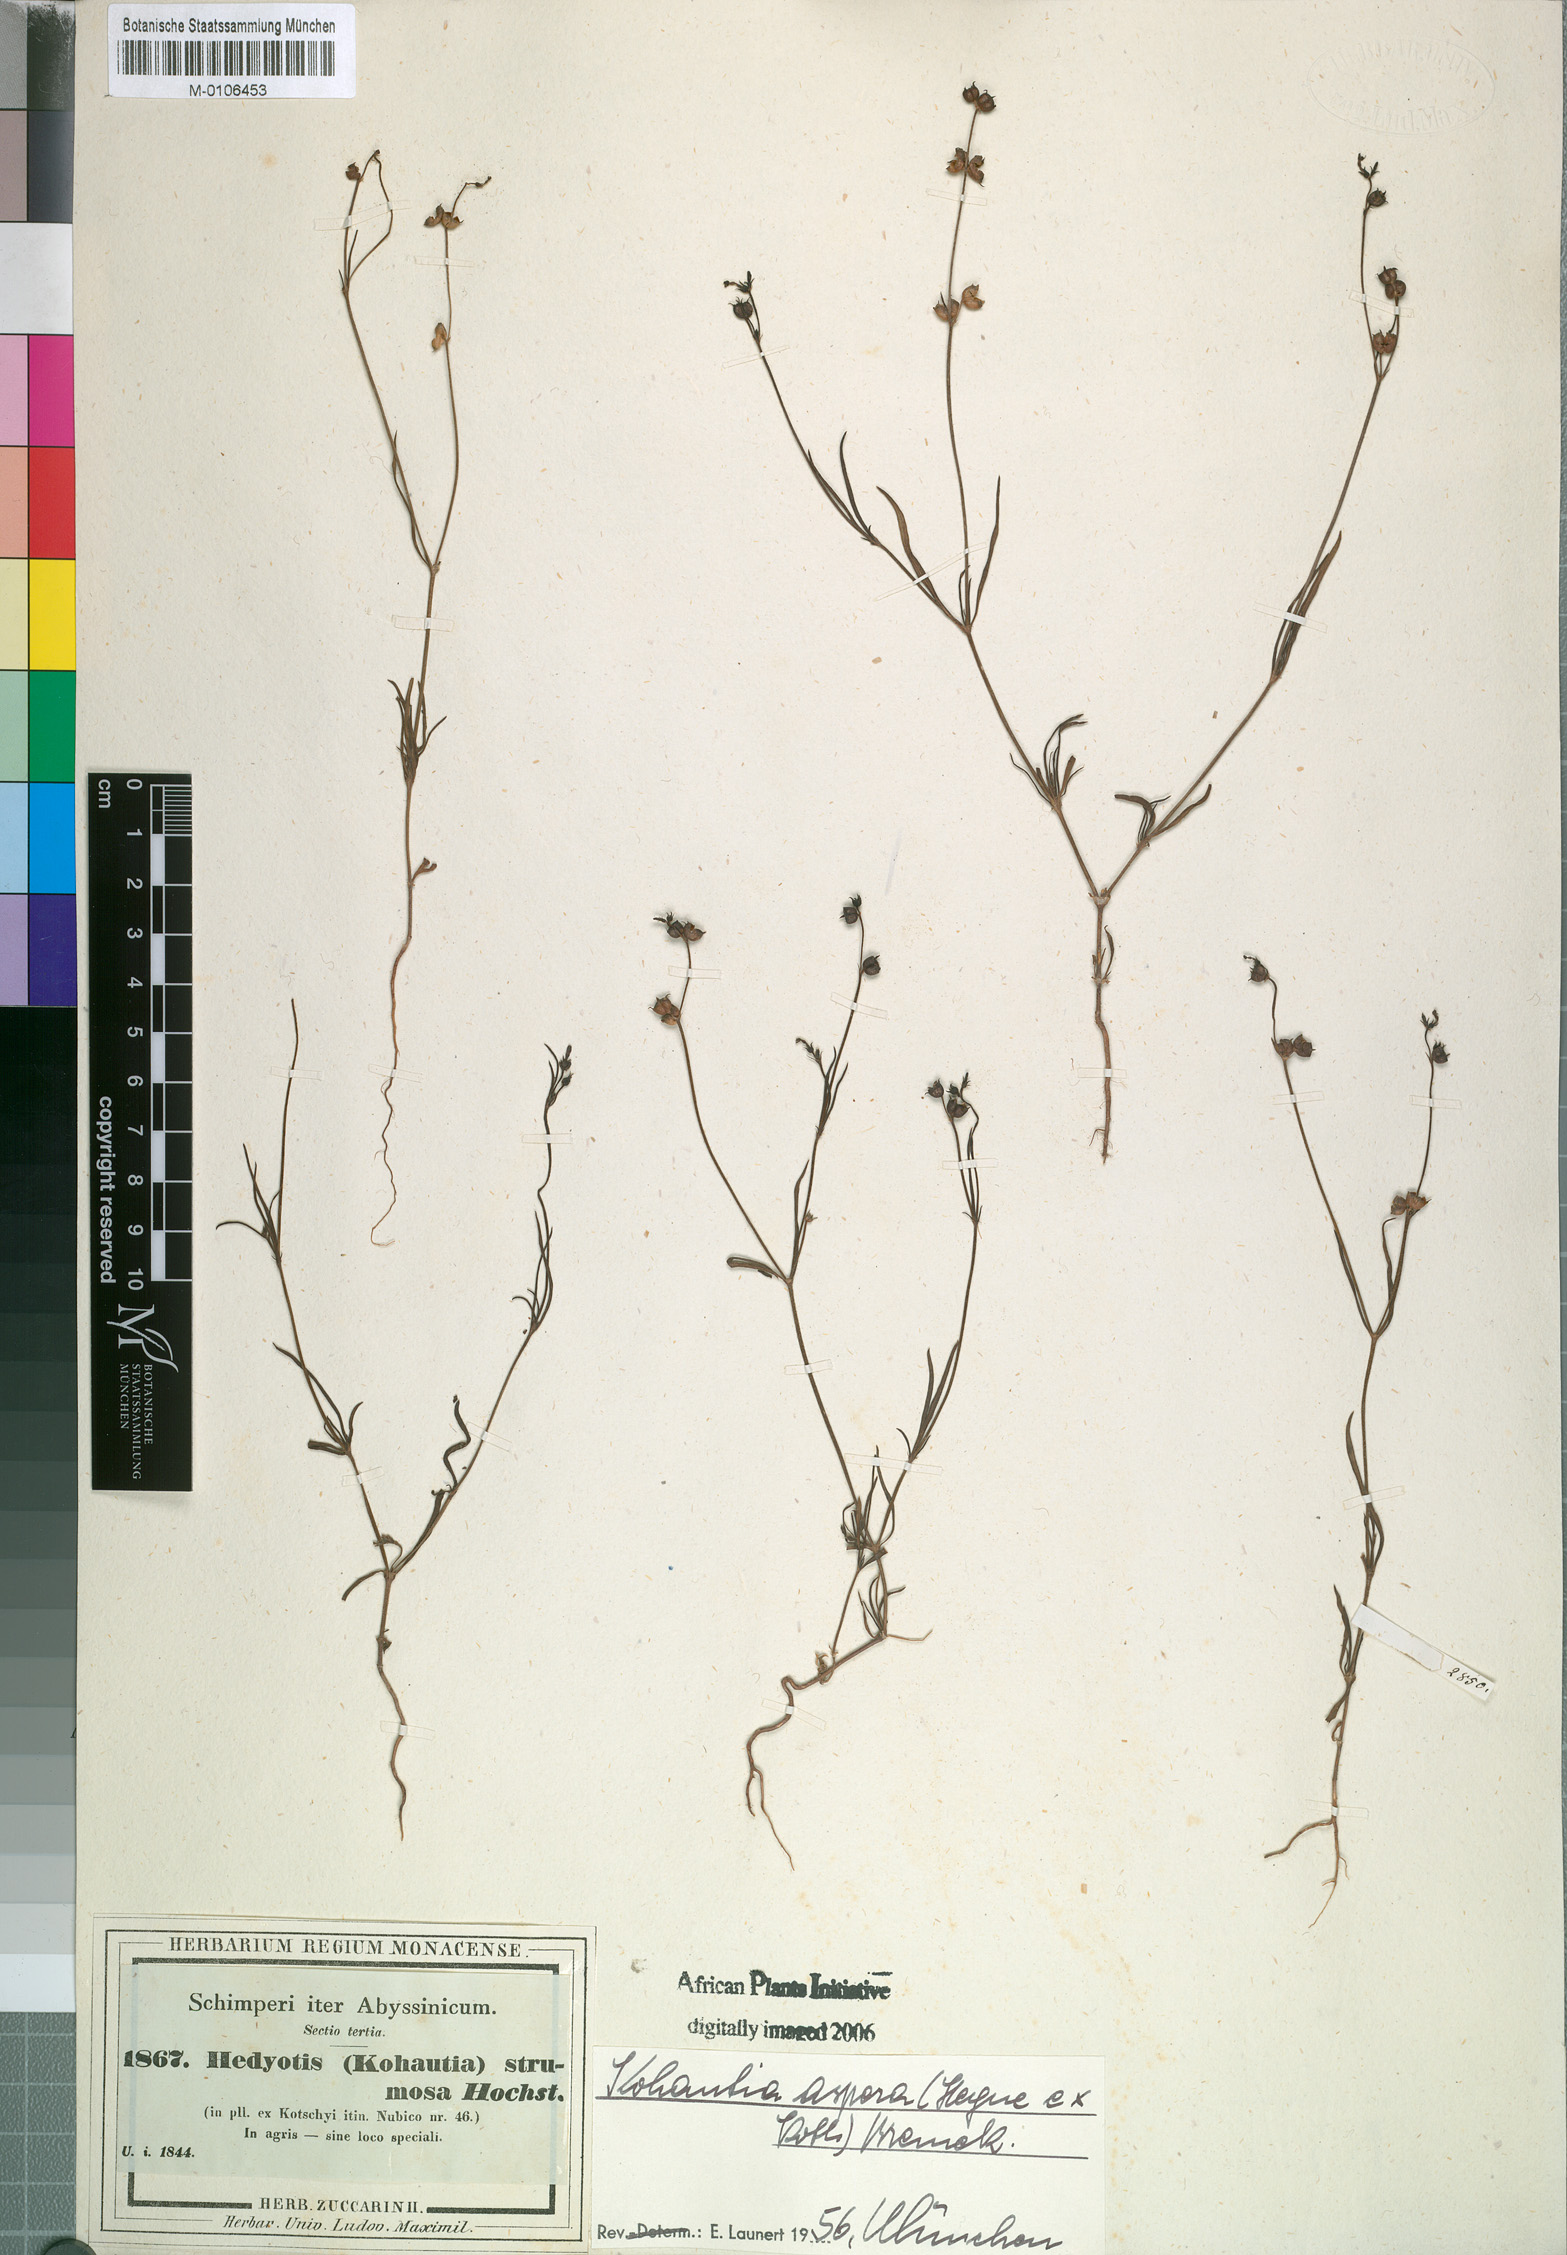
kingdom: Plantae
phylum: Tracheophyta
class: Magnoliopsida
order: Gentianales
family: Rubiaceae
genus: Kohautia
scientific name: Kohautia aspera
